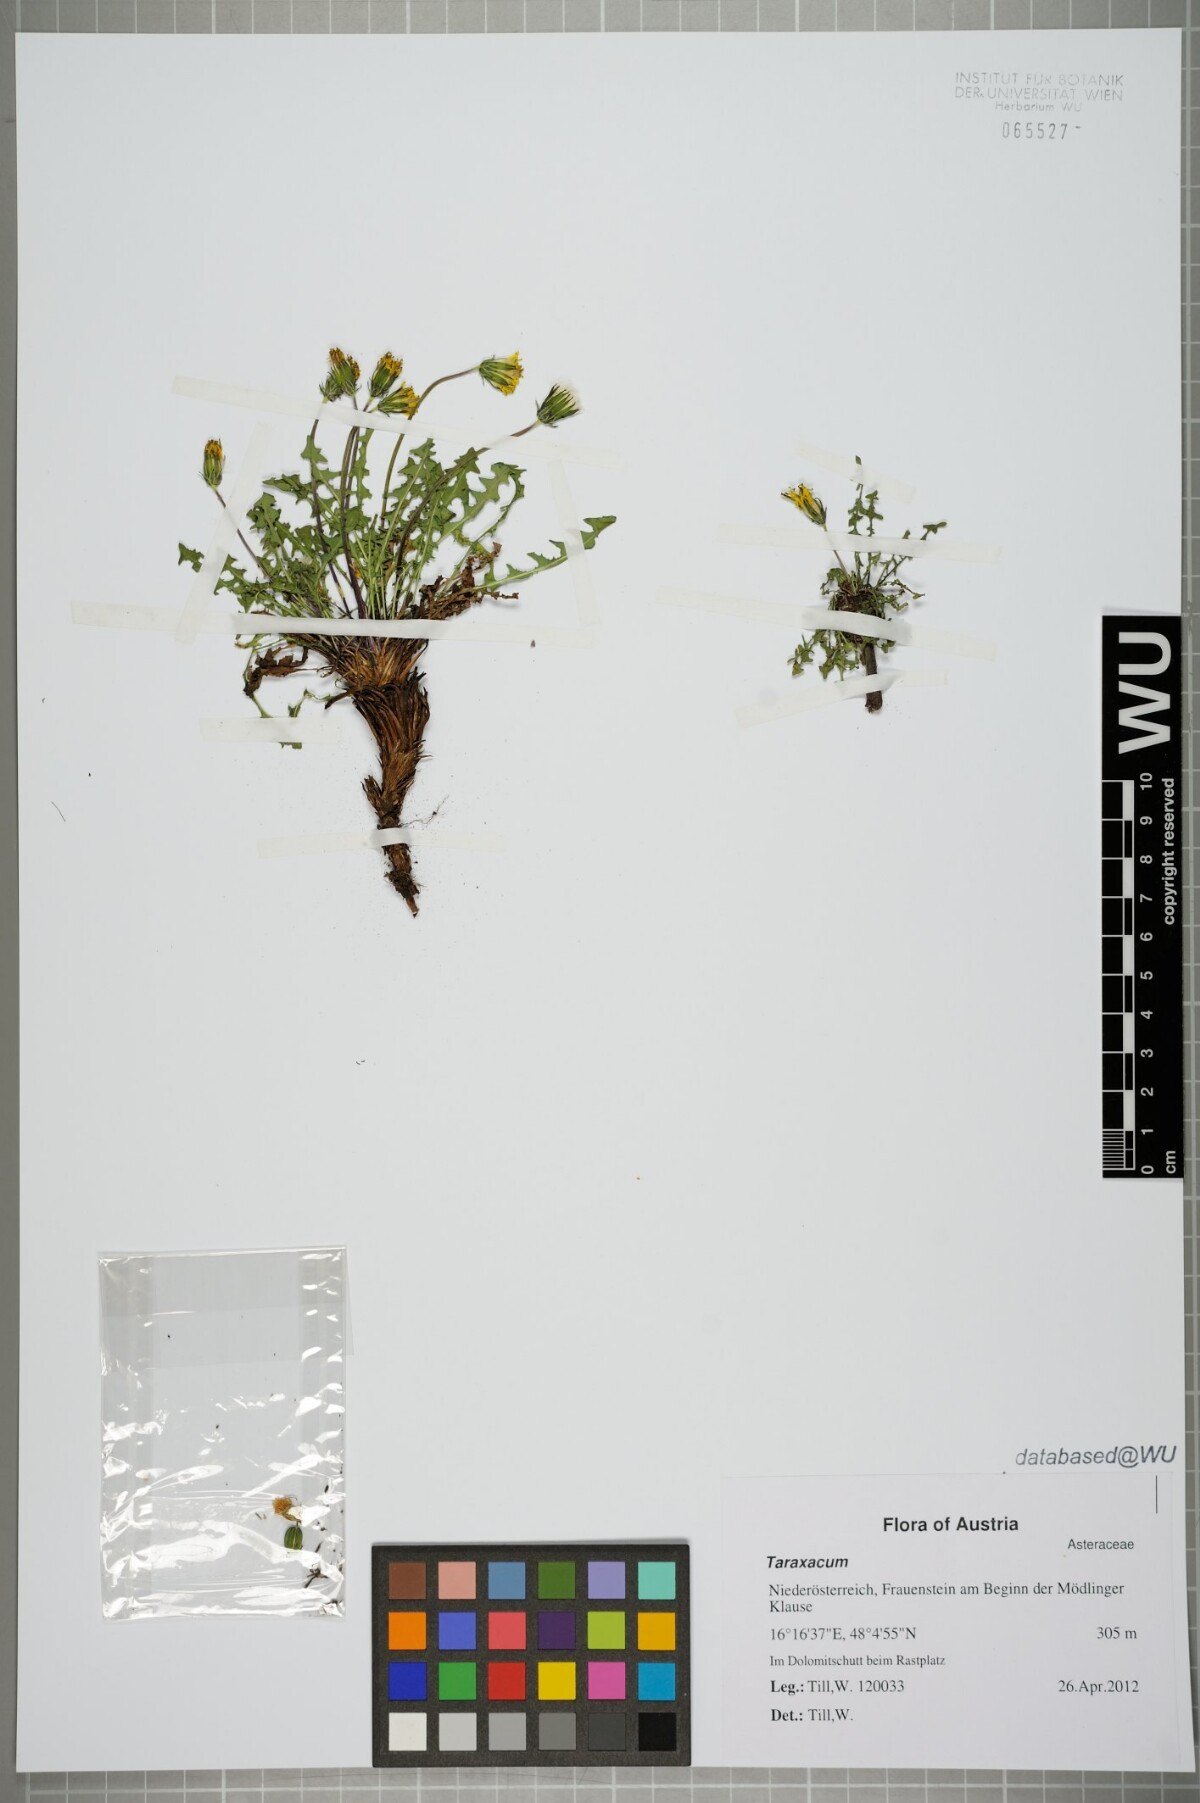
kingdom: Plantae
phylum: Tracheophyta
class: Magnoliopsida
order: Asterales
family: Asteraceae
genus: Taraxacum
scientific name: Taraxacum
